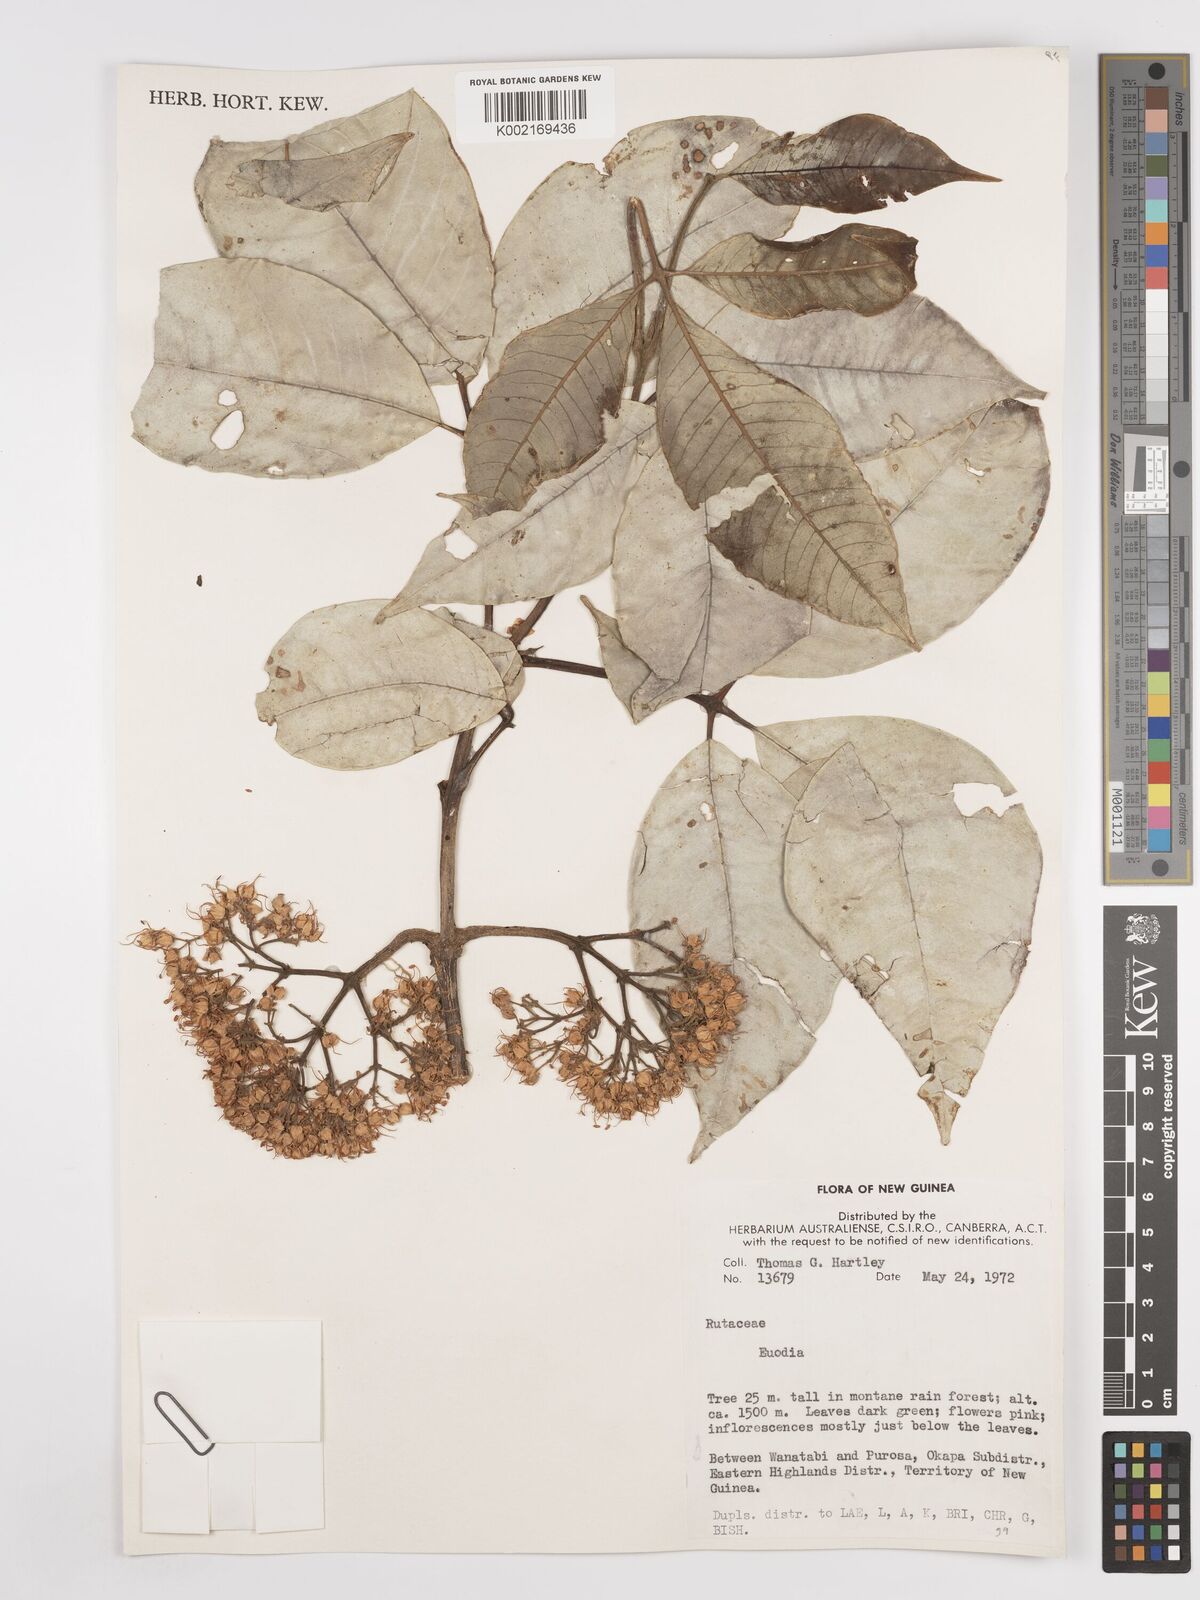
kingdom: Plantae
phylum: Tracheophyta
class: Magnoliopsida
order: Sapindales
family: Rutaceae
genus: Euodia
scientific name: Euodia
